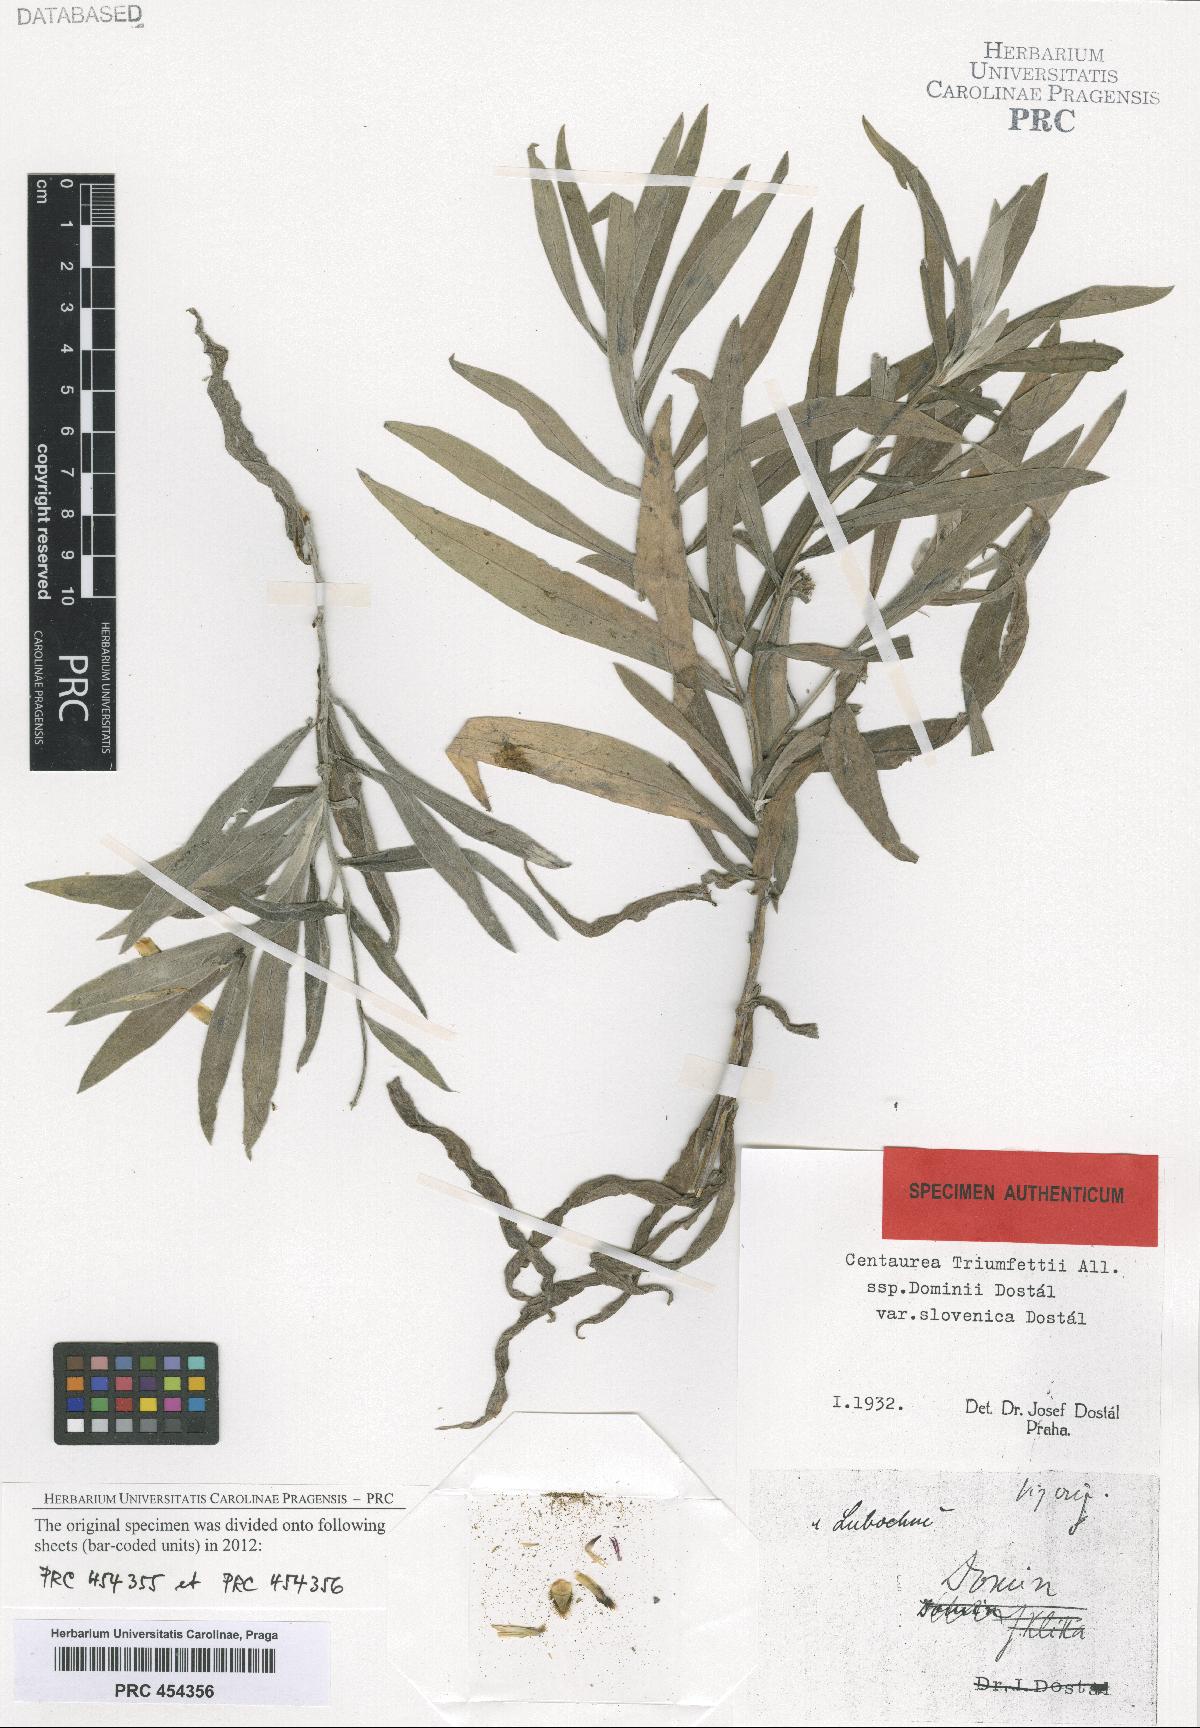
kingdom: Plantae
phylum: Tracheophyta
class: Magnoliopsida
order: Asterales
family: Asteraceae
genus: Centaurea
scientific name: Centaurea dominii
